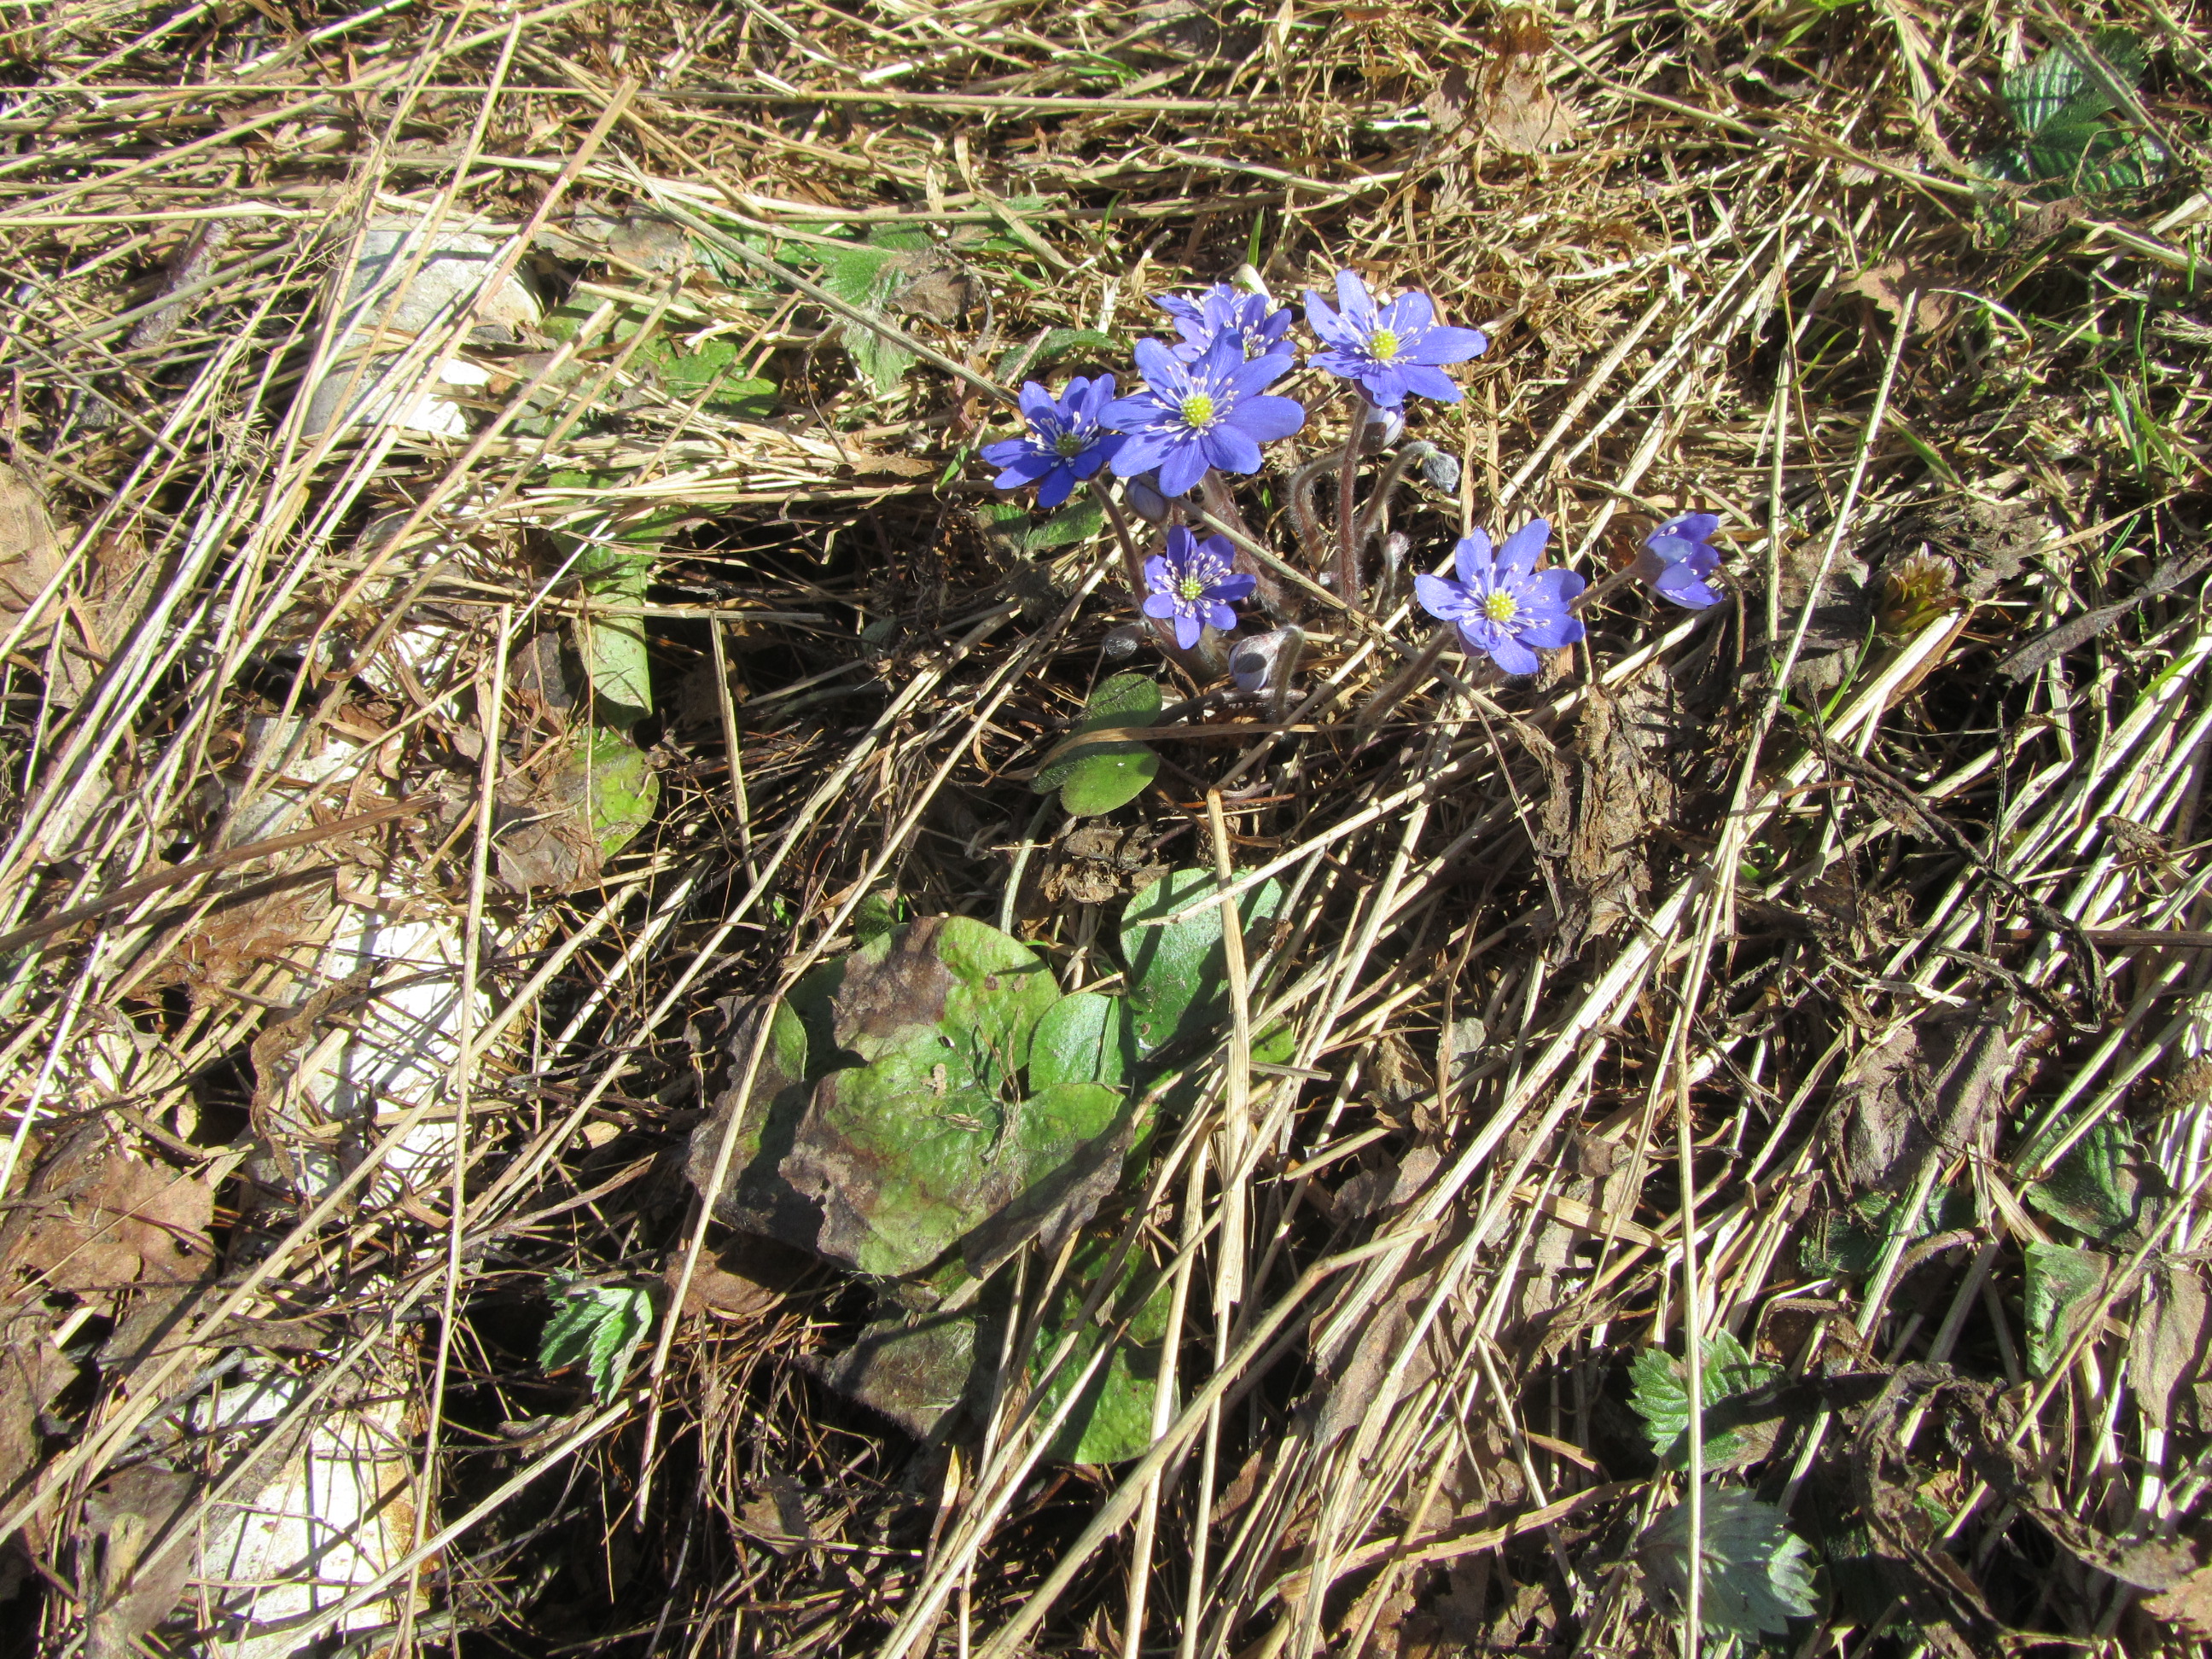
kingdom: Plantae
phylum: Tracheophyta
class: Magnoliopsida
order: Ranunculales
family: Ranunculaceae
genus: Hepatica
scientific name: Hepatica nobilis
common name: Liverleaf
